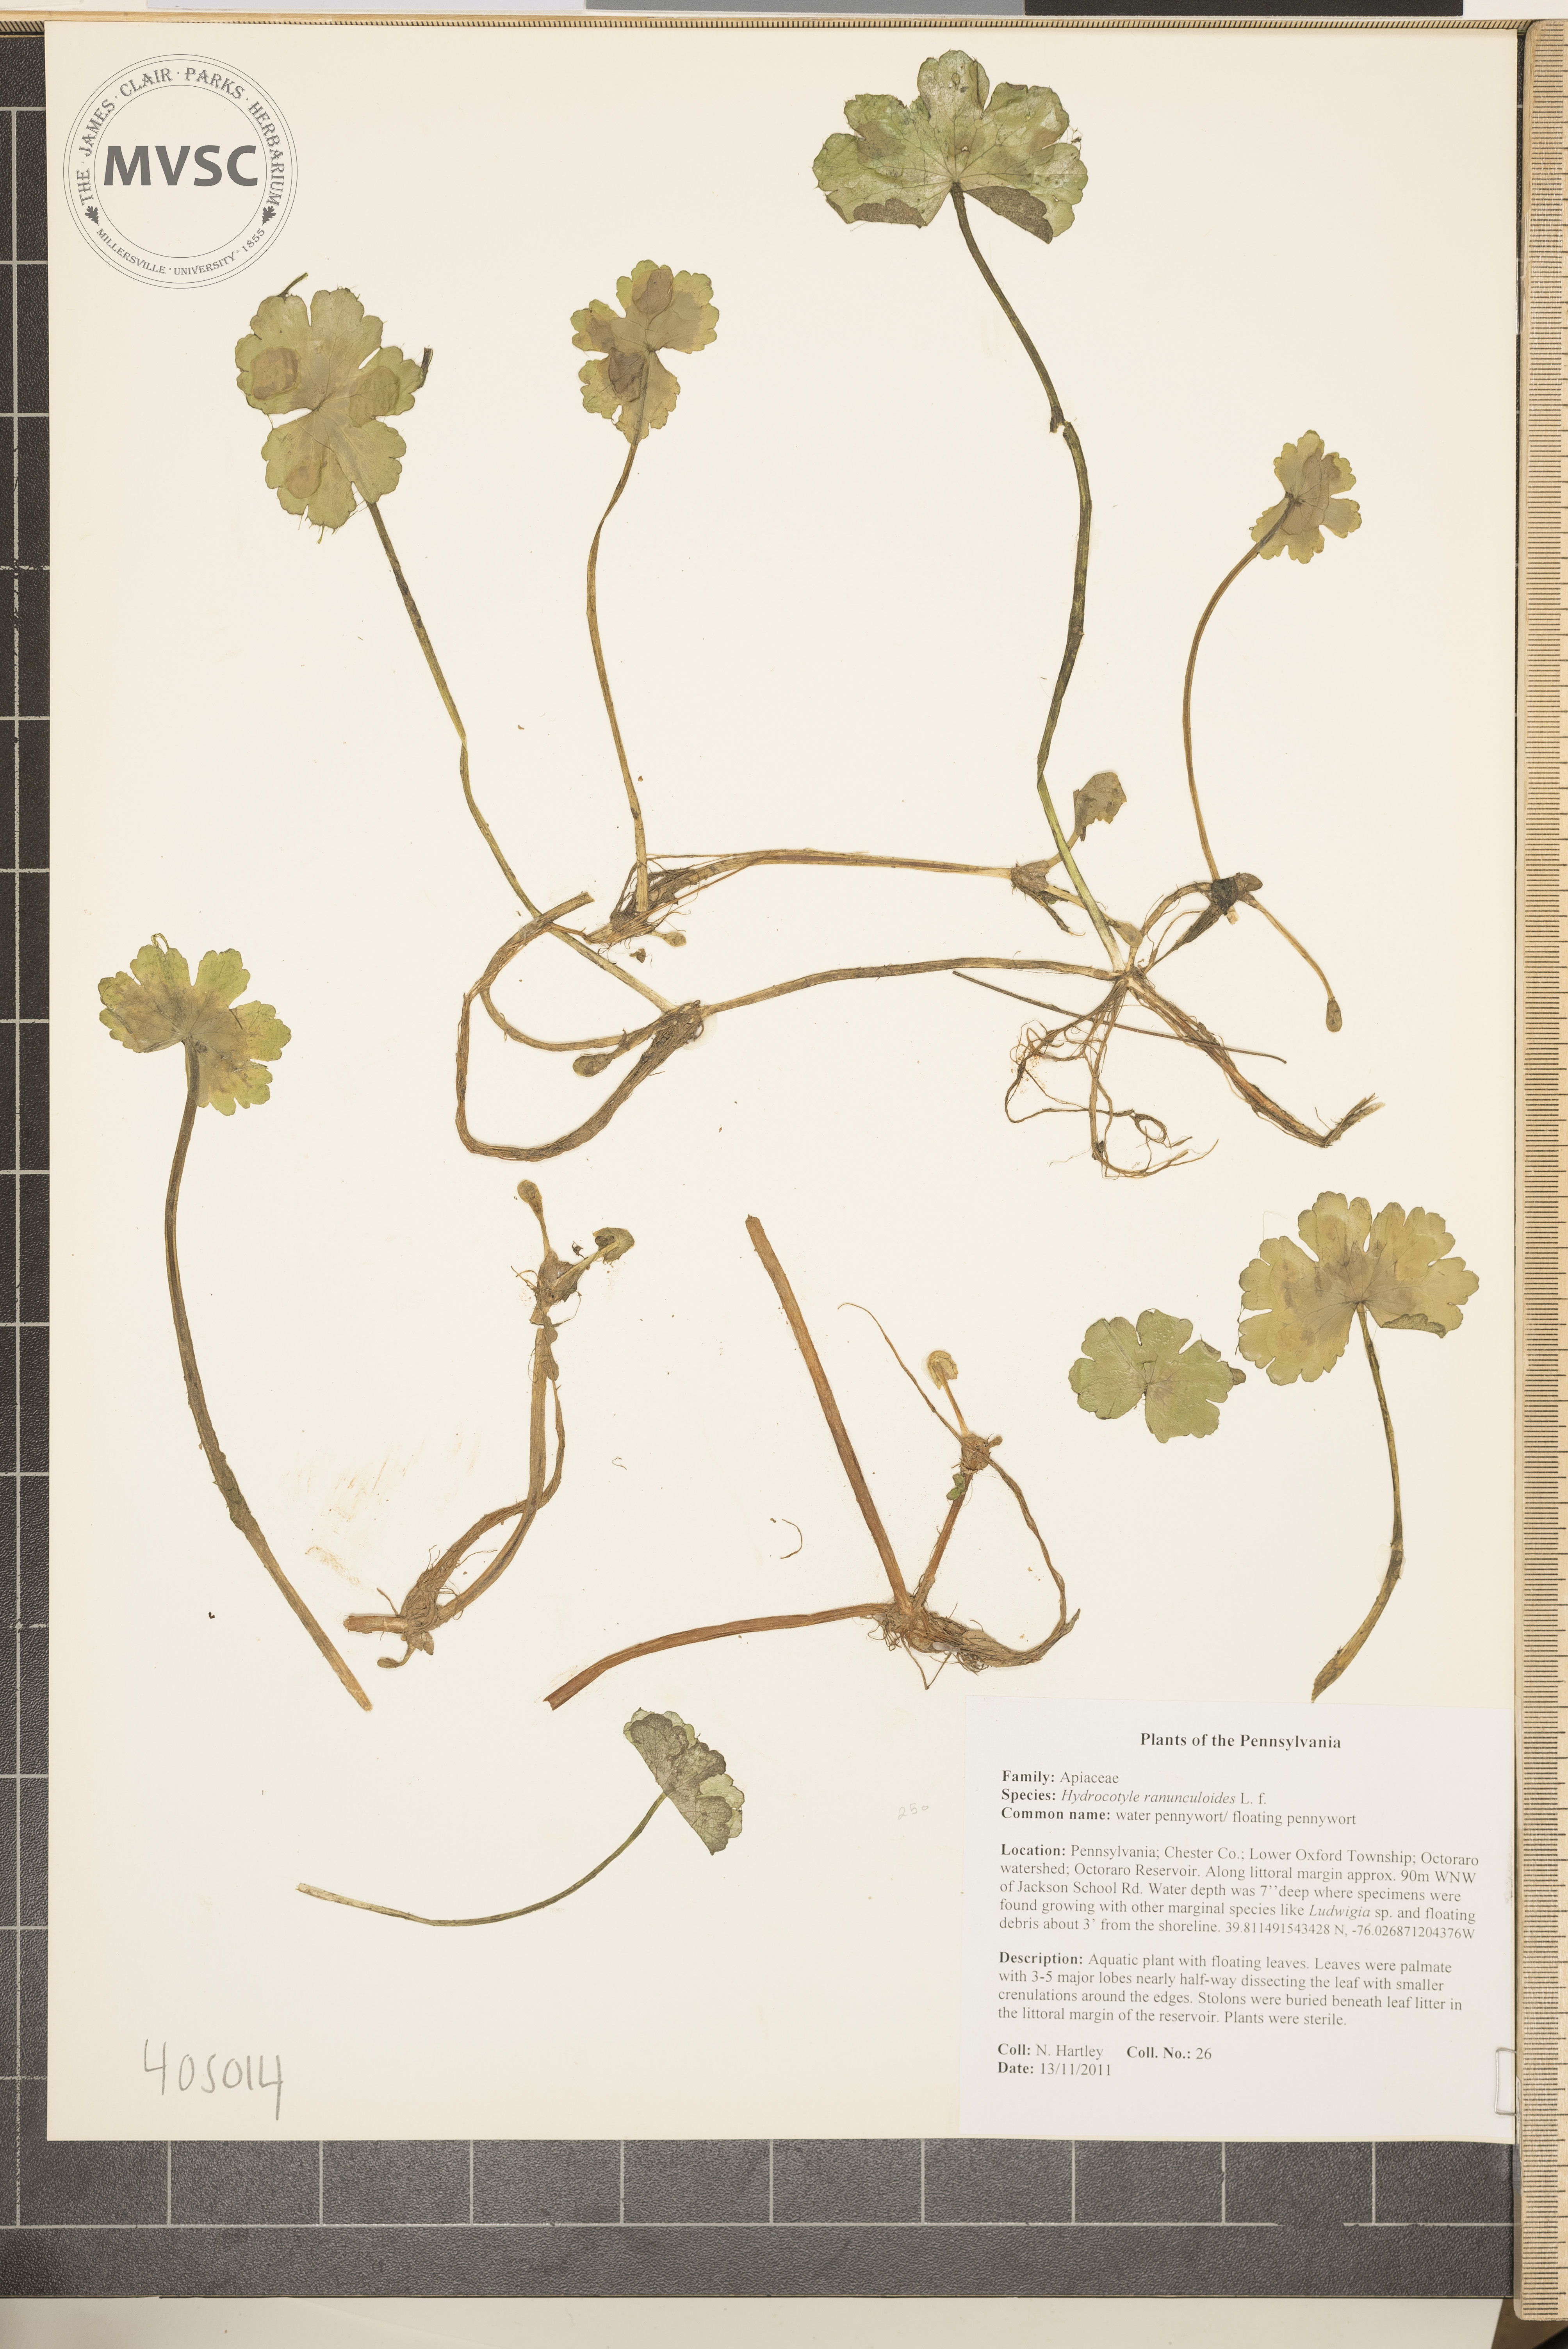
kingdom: Plantae
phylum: Tracheophyta
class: Magnoliopsida
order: Apiales
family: Araliaceae
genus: Hydrocotyle
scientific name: Hydrocotyle ranunculoides
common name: water pennywort
